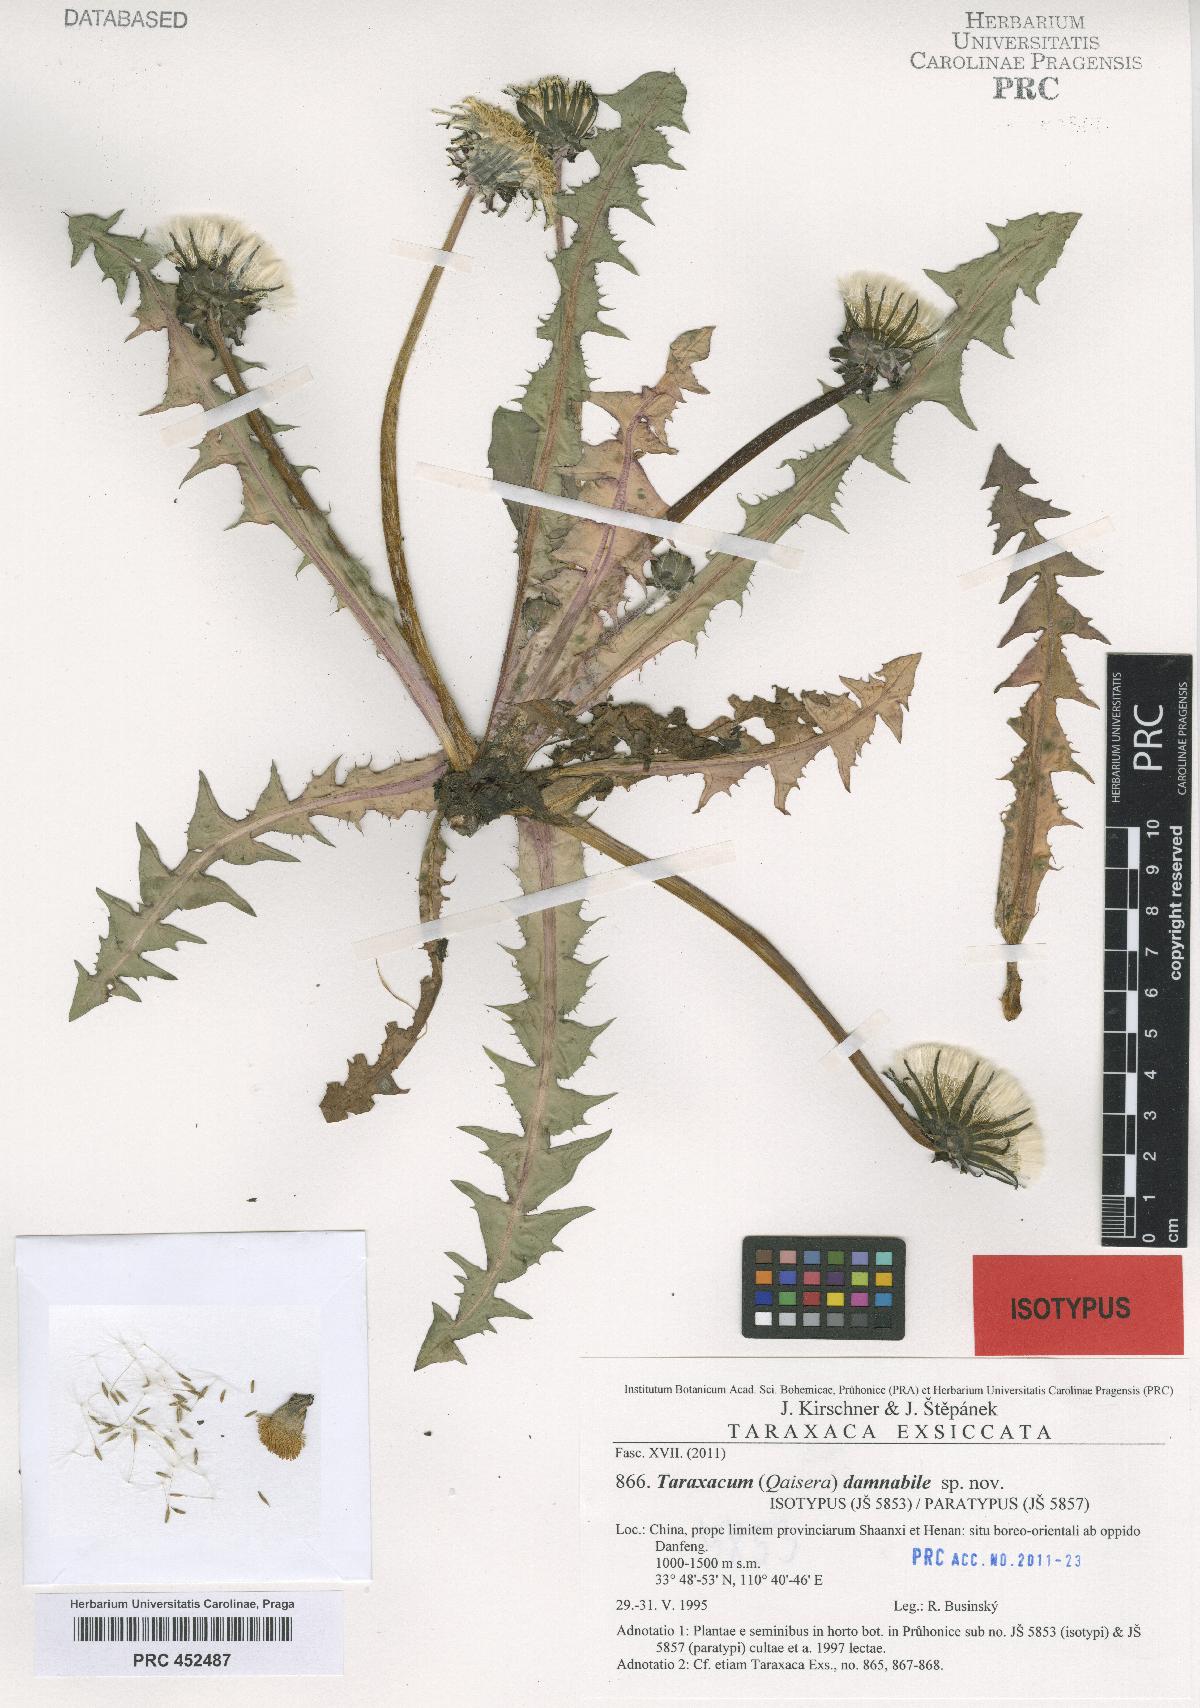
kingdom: Plantae
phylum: Tracheophyta
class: Magnoliopsida
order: Asterales
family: Asteraceae
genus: Taraxacum
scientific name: Taraxacum damnabile
